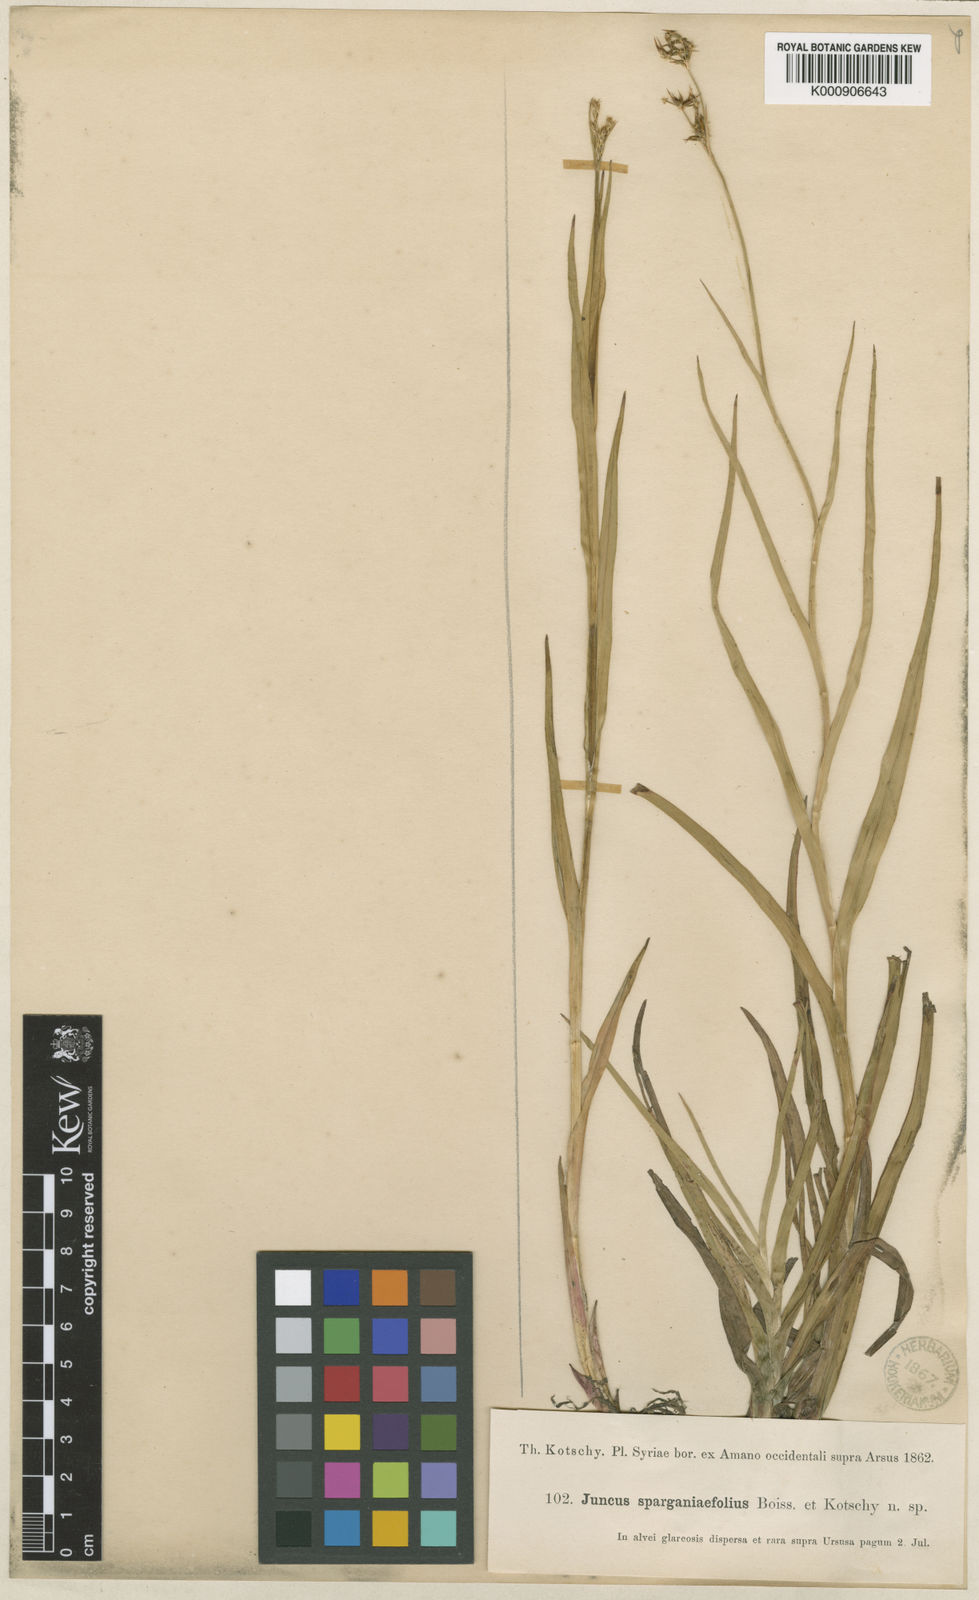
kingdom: Plantae
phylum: Tracheophyta
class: Liliopsida
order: Poales
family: Juncaceae
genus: Juncus
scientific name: Juncus
